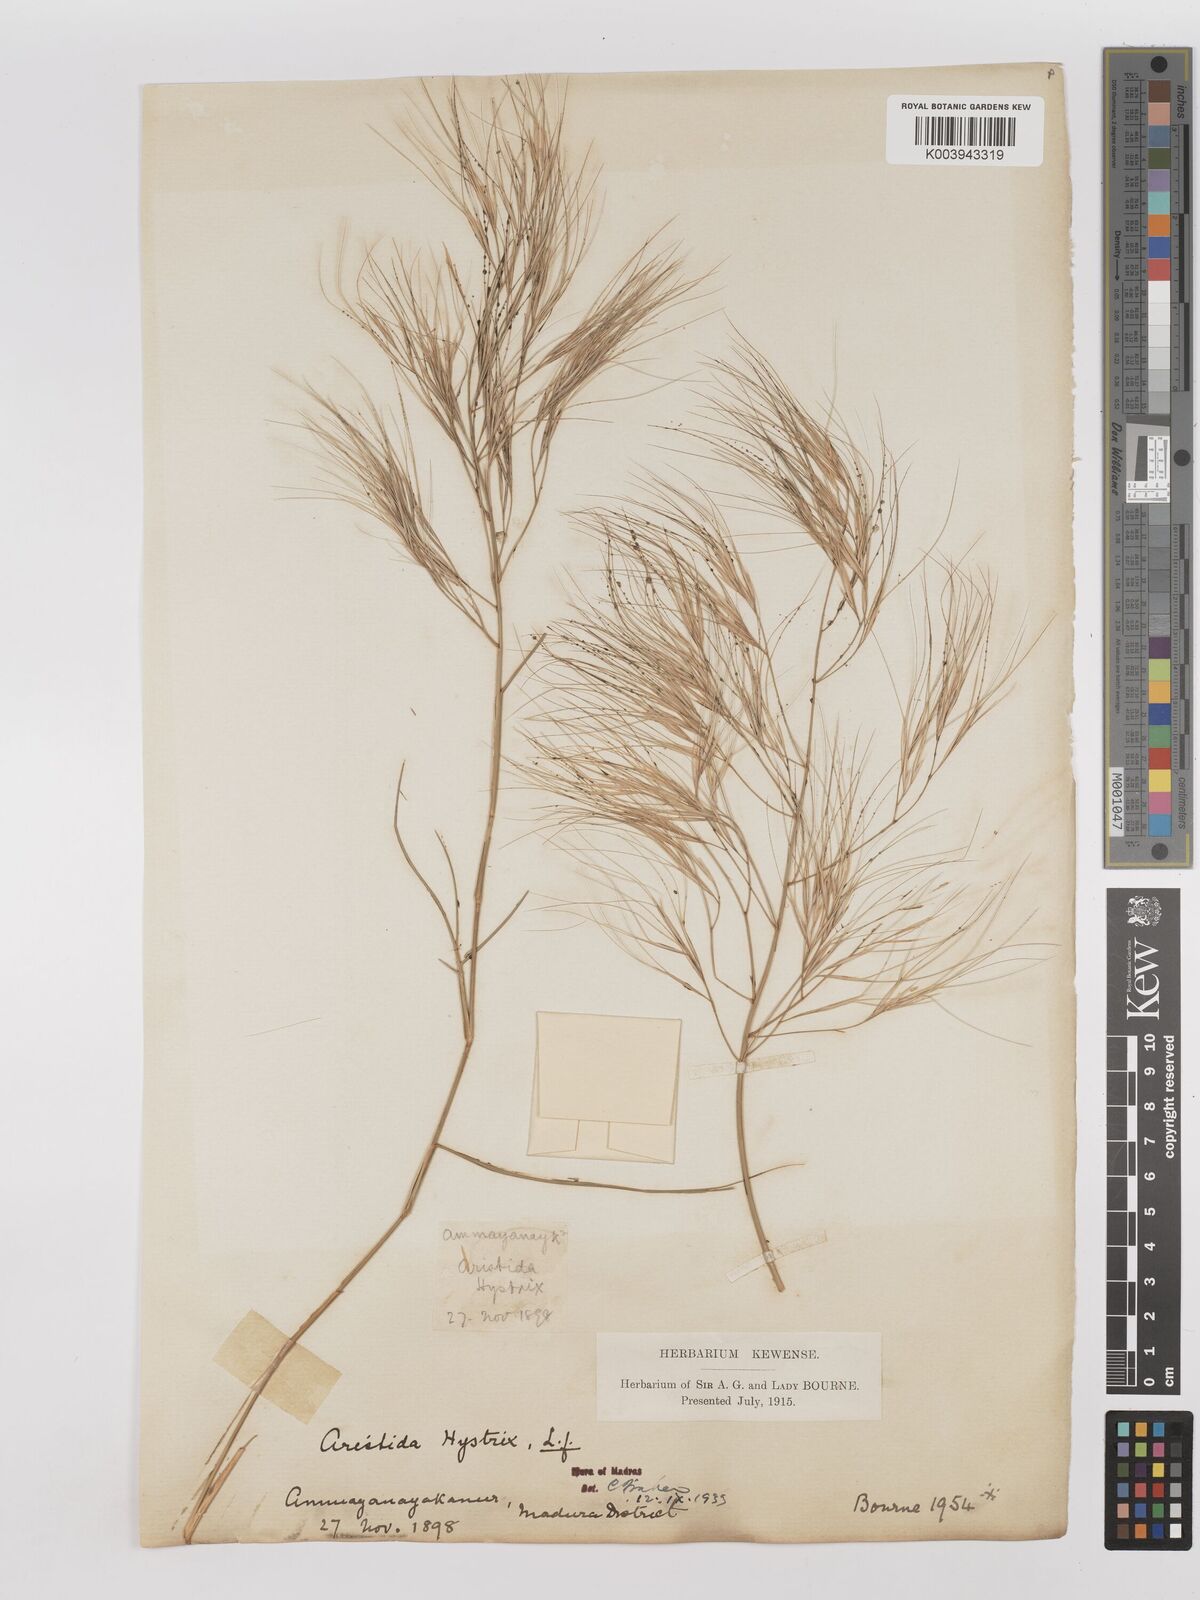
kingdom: Plantae
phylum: Tracheophyta
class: Liliopsida
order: Poales
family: Poaceae
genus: Aristida
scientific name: Aristida hystrix
